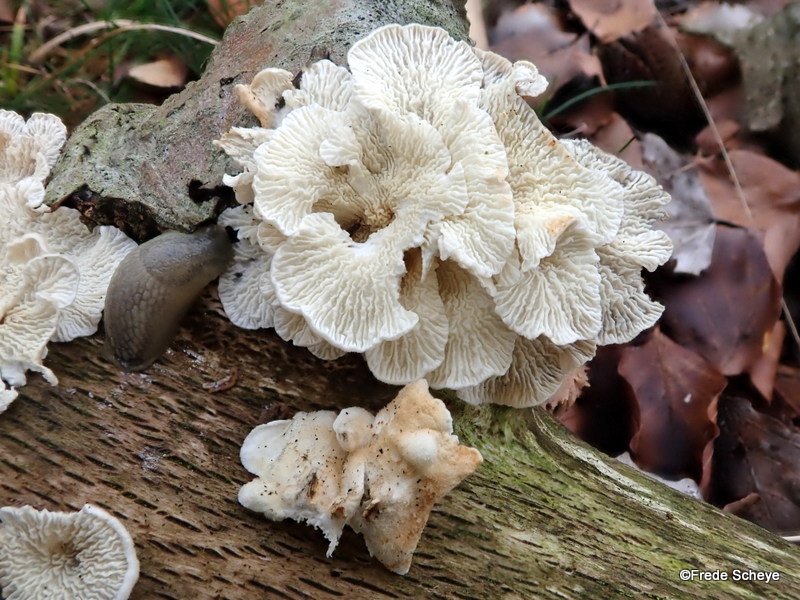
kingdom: Fungi
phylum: Basidiomycota
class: Agaricomycetes
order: Amylocorticiales
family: Amylocorticiaceae
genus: Plicaturopsis
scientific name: Plicaturopsis crispa
